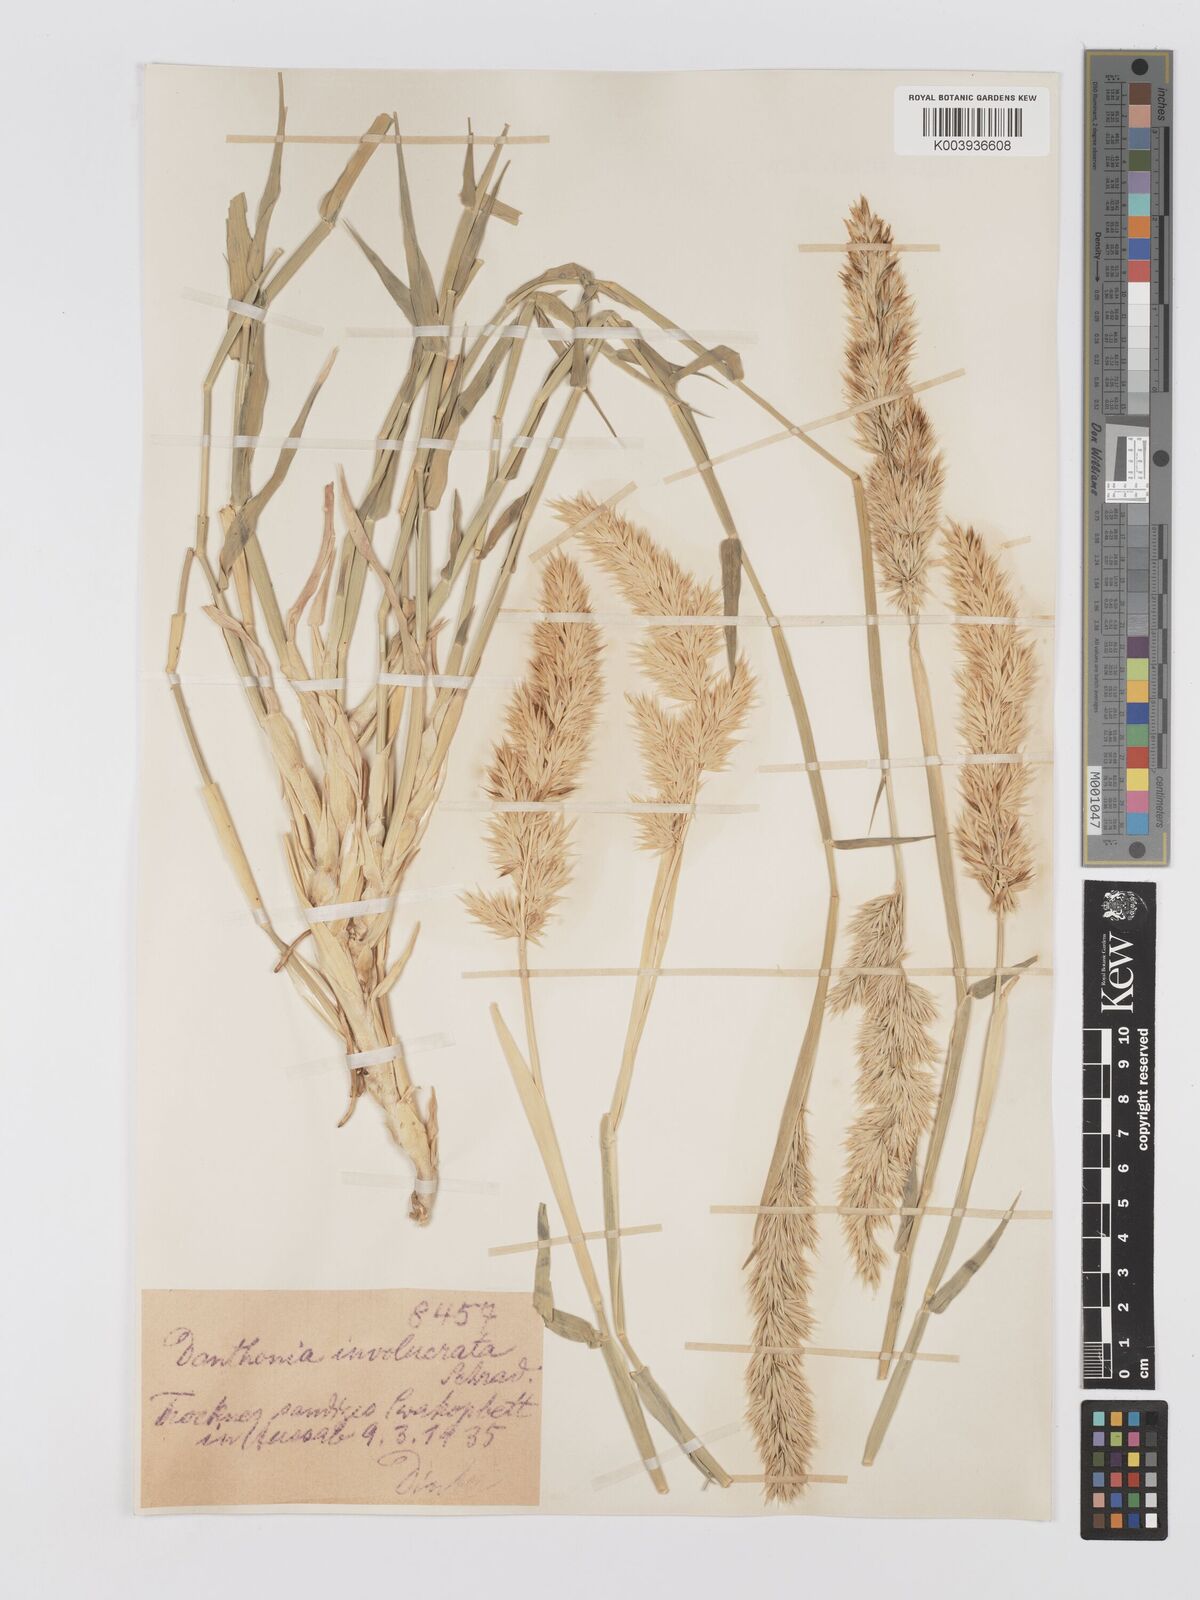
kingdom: Plantae
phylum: Tracheophyta
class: Liliopsida
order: Poales
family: Poaceae
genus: Centropodia
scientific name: Centropodia glauca
